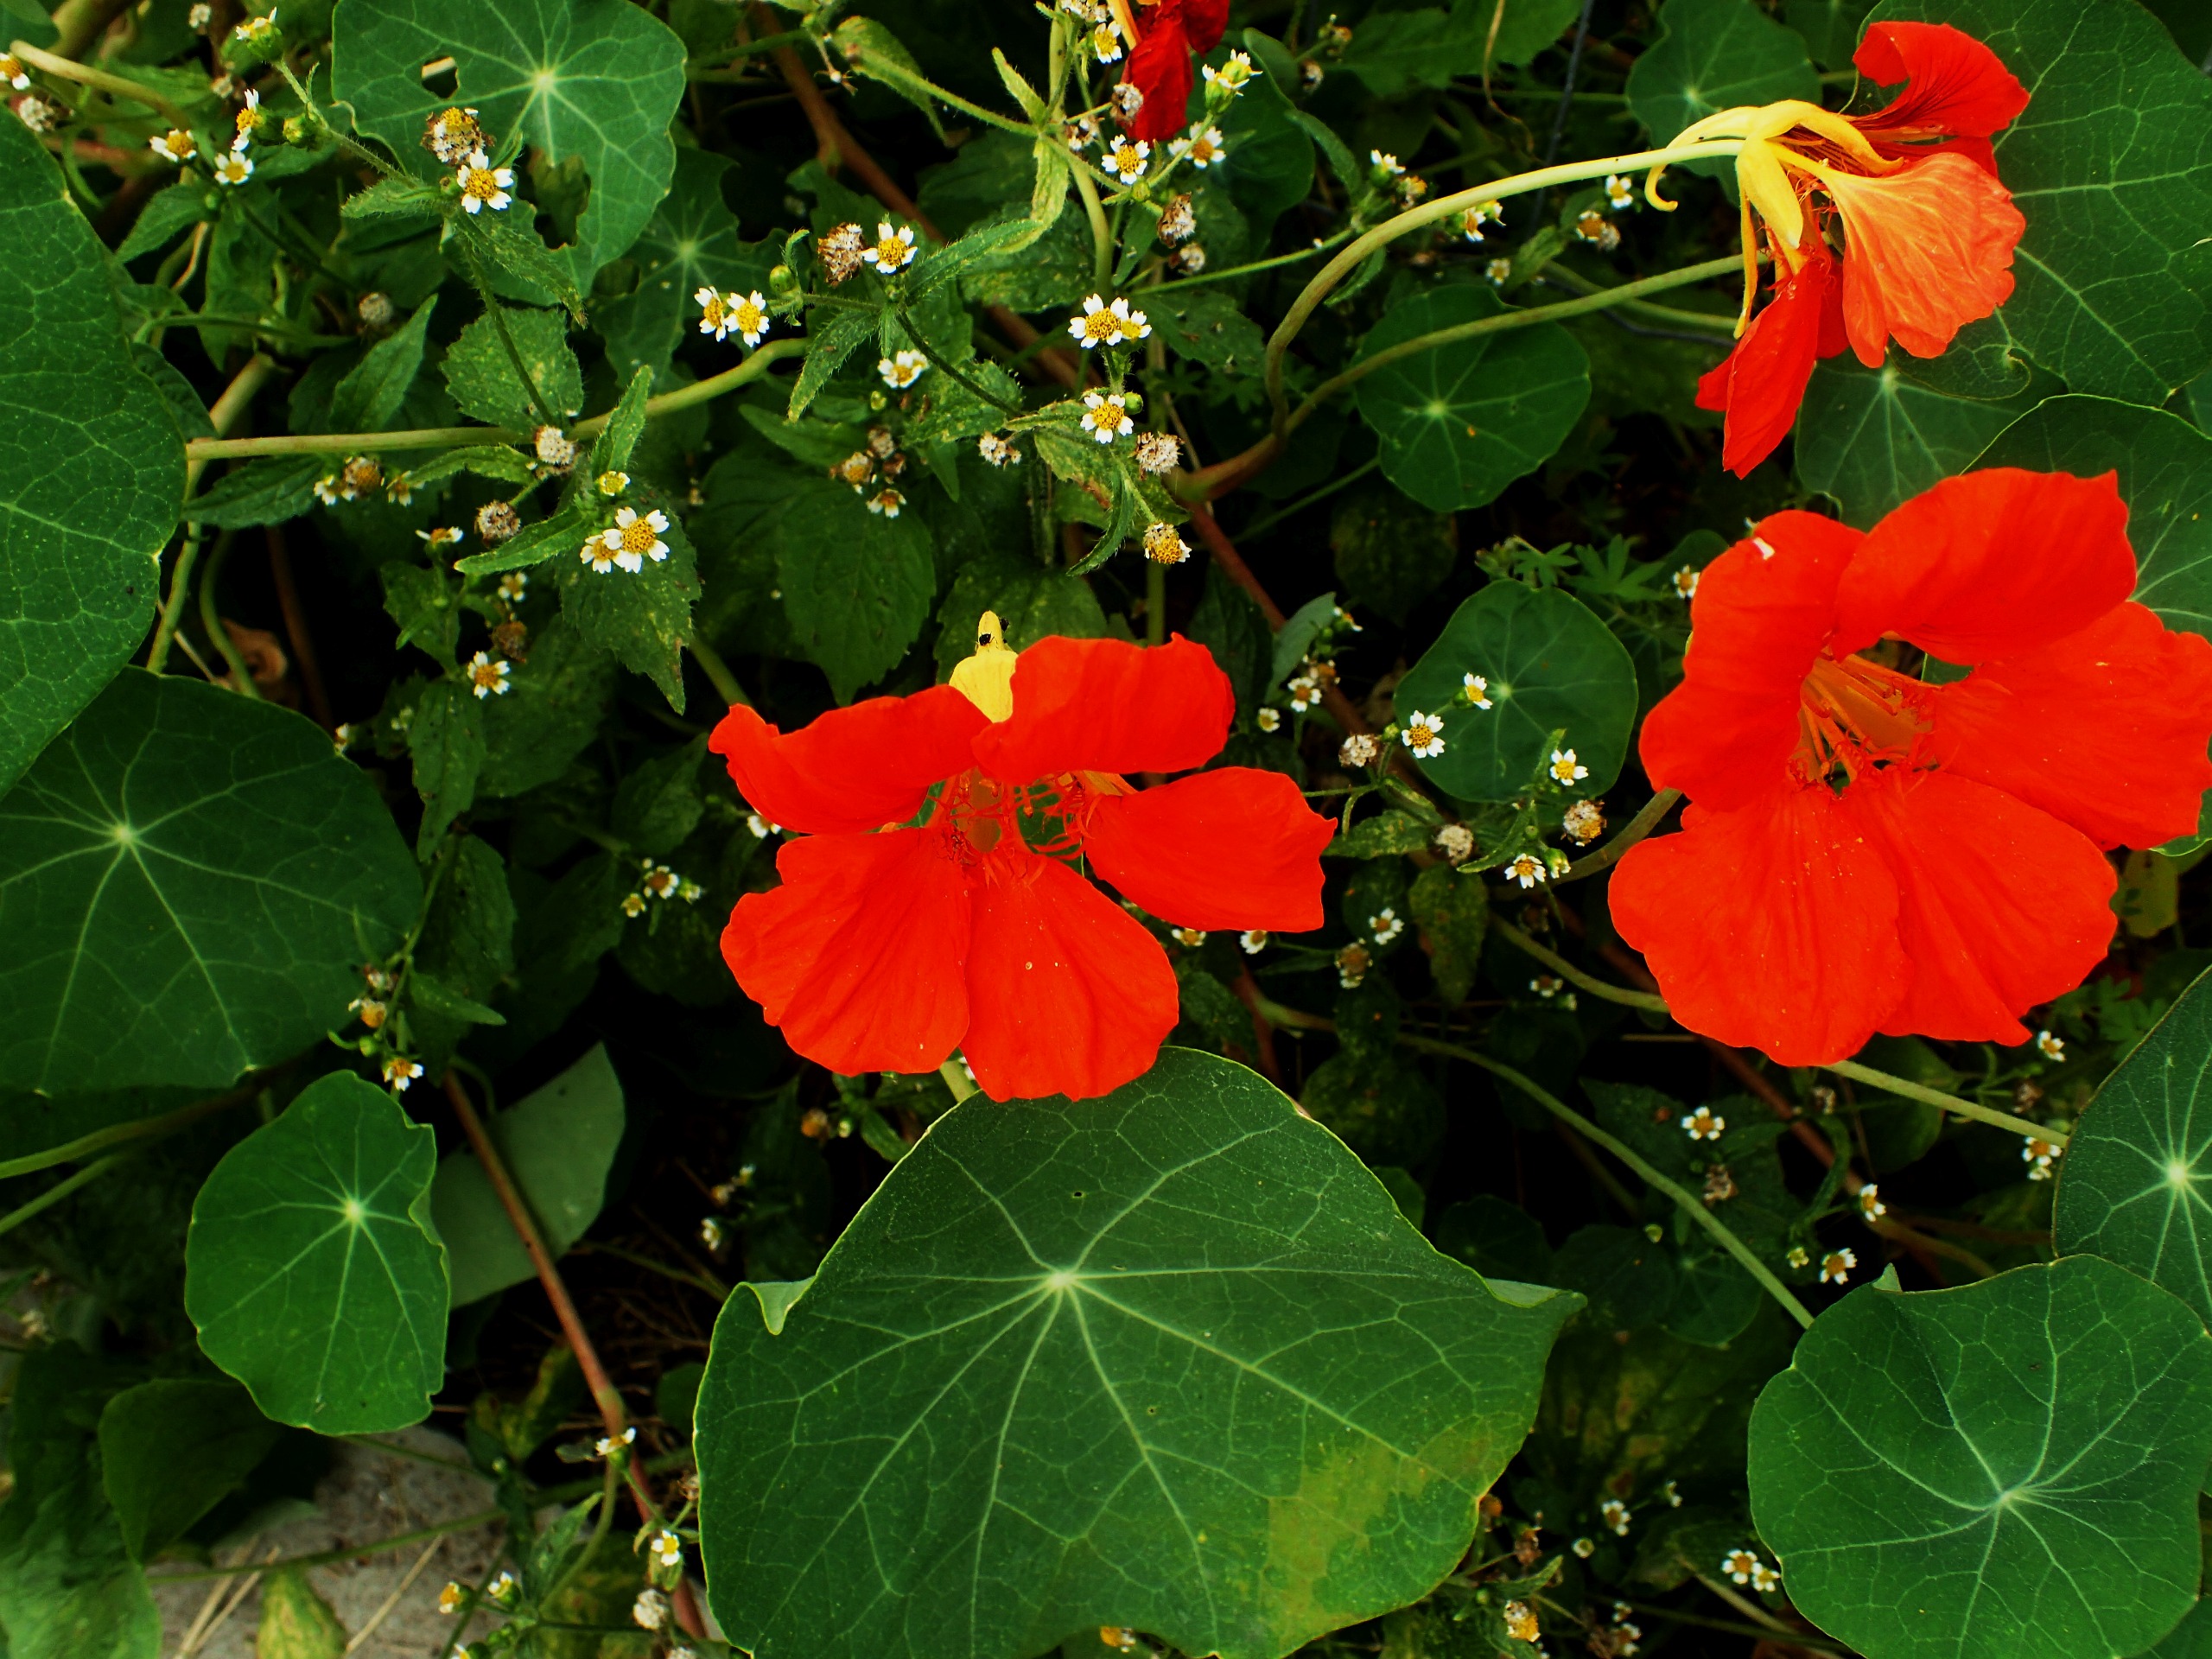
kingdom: Plantae
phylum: Tracheophyta
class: Magnoliopsida
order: Brassicales
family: Tropaeolaceae
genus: Tropaeolum
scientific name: Tropaeolum majus
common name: Blomsterkarse
